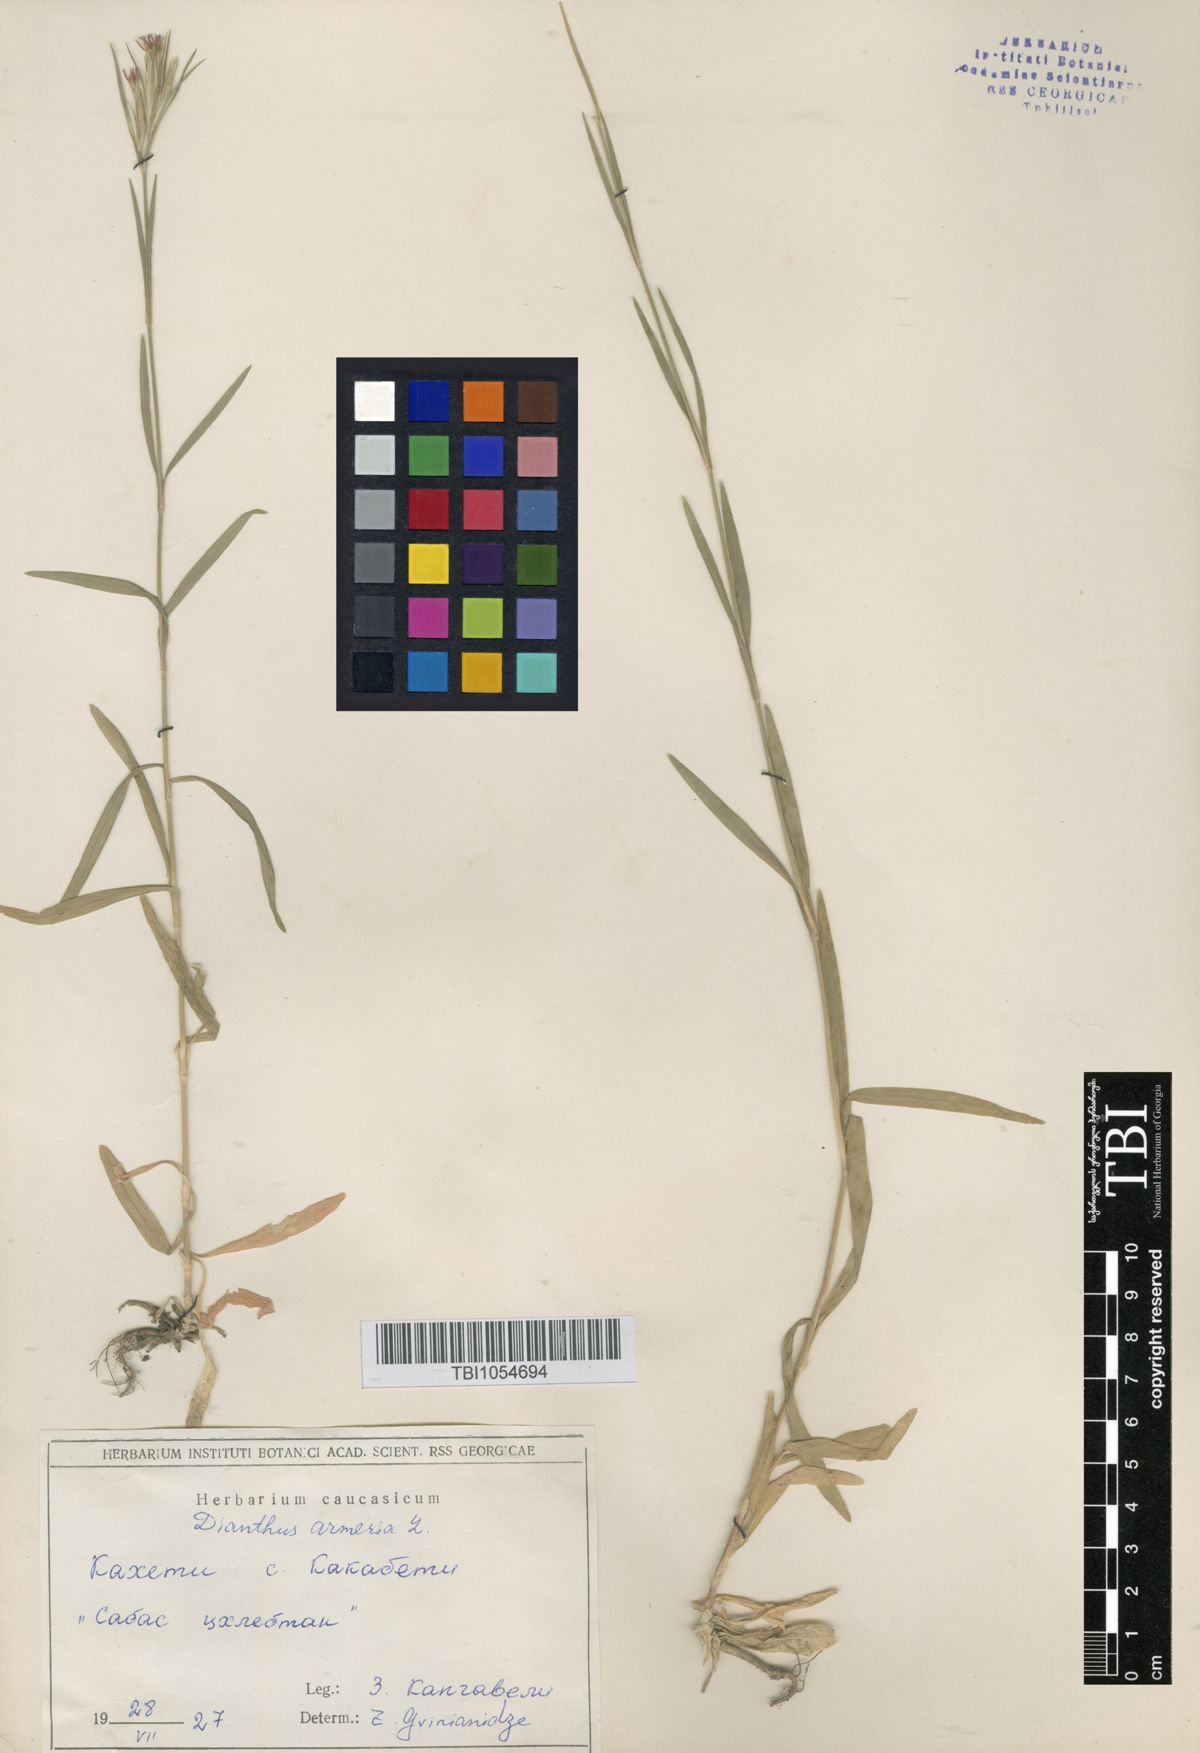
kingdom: Plantae
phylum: Tracheophyta
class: Magnoliopsida
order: Caryophyllales
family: Caryophyllaceae
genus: Dianthus
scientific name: Dianthus armeria
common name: Deptford pink
